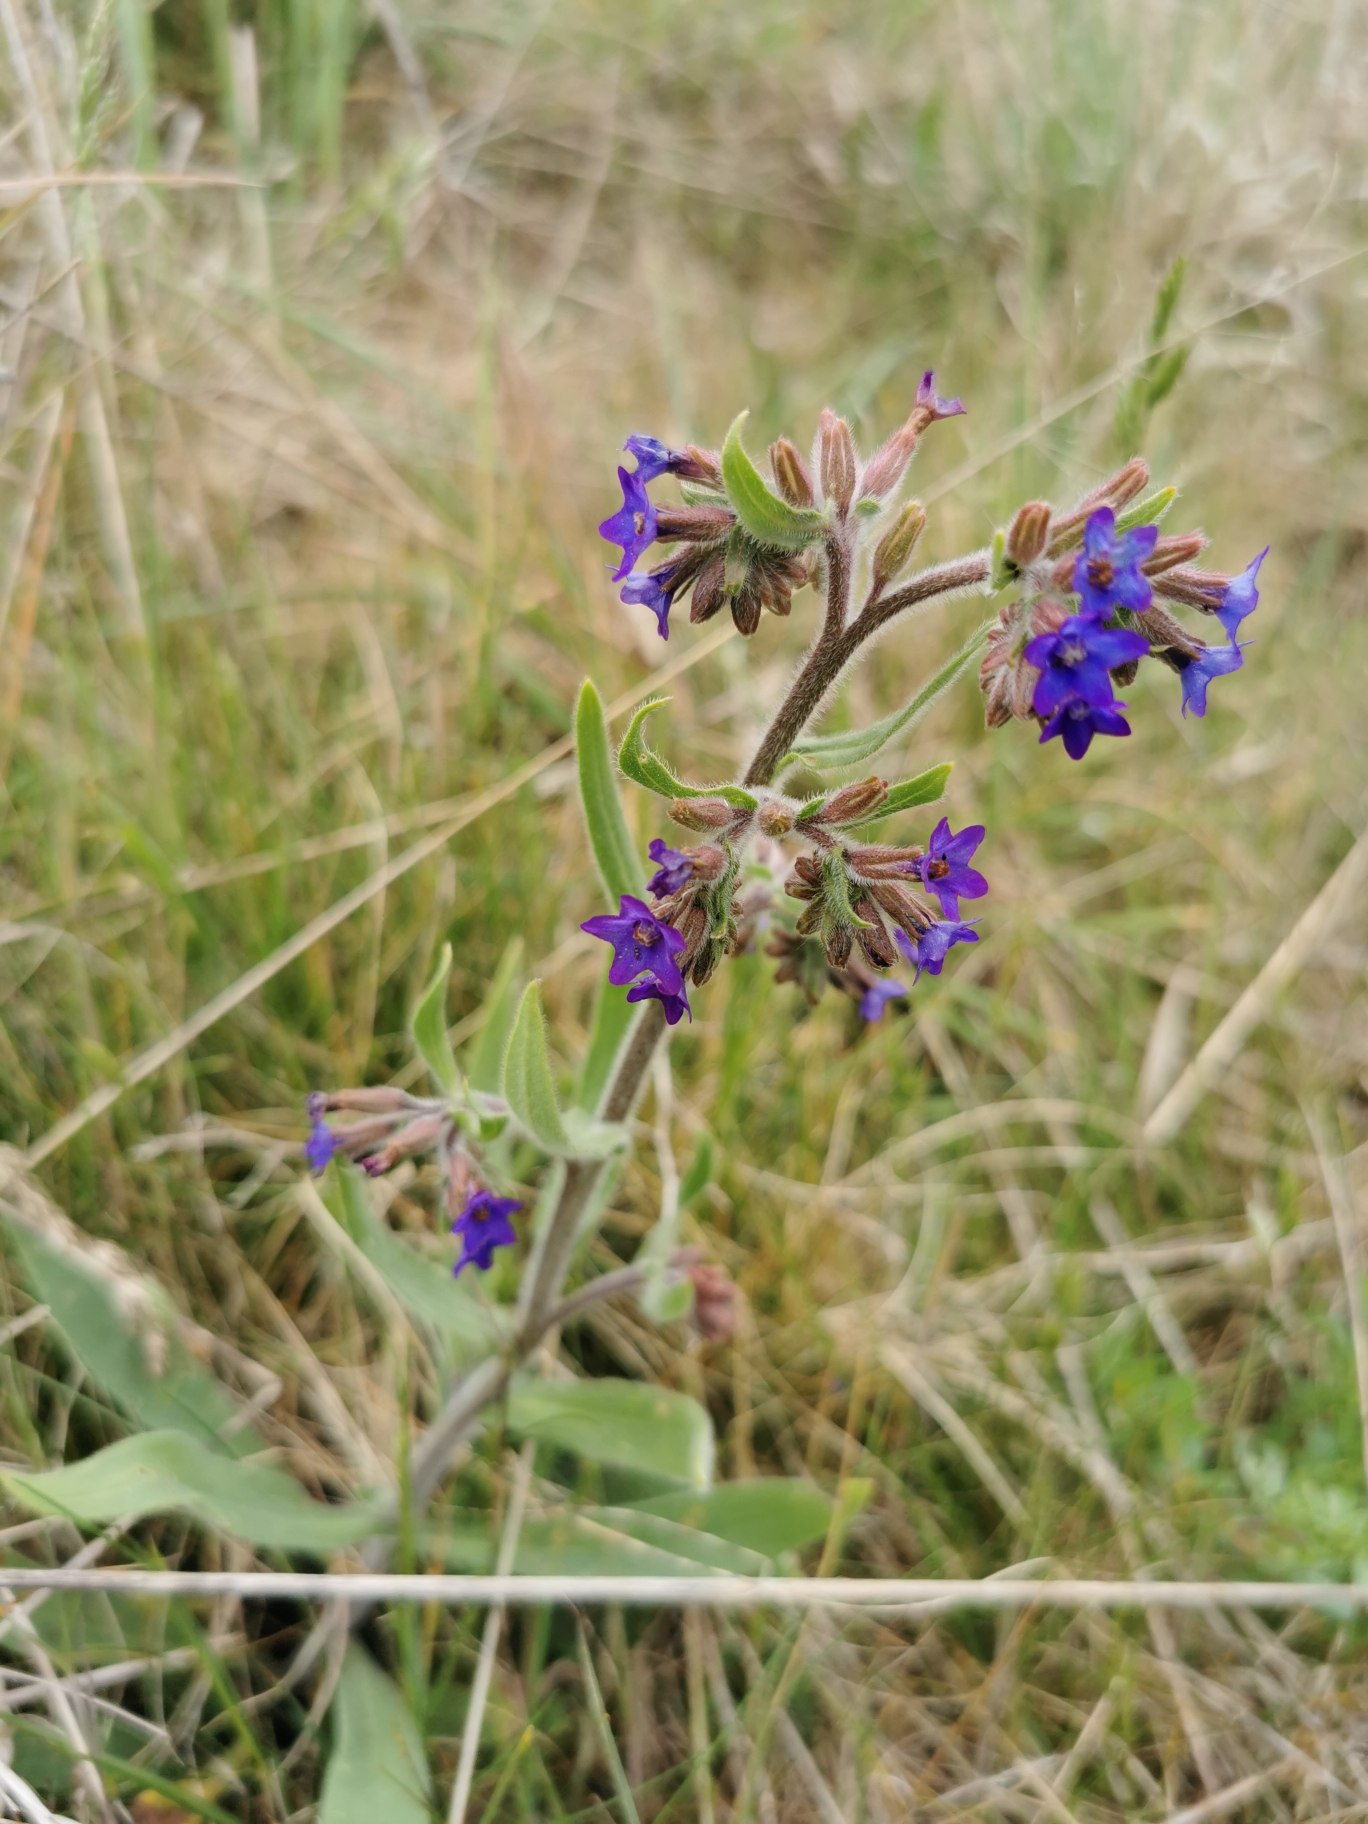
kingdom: Plantae
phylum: Tracheophyta
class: Magnoliopsida
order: Boraginales
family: Boraginaceae
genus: Anchusa
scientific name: Anchusa officinalis
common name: Læge-oksetunge
